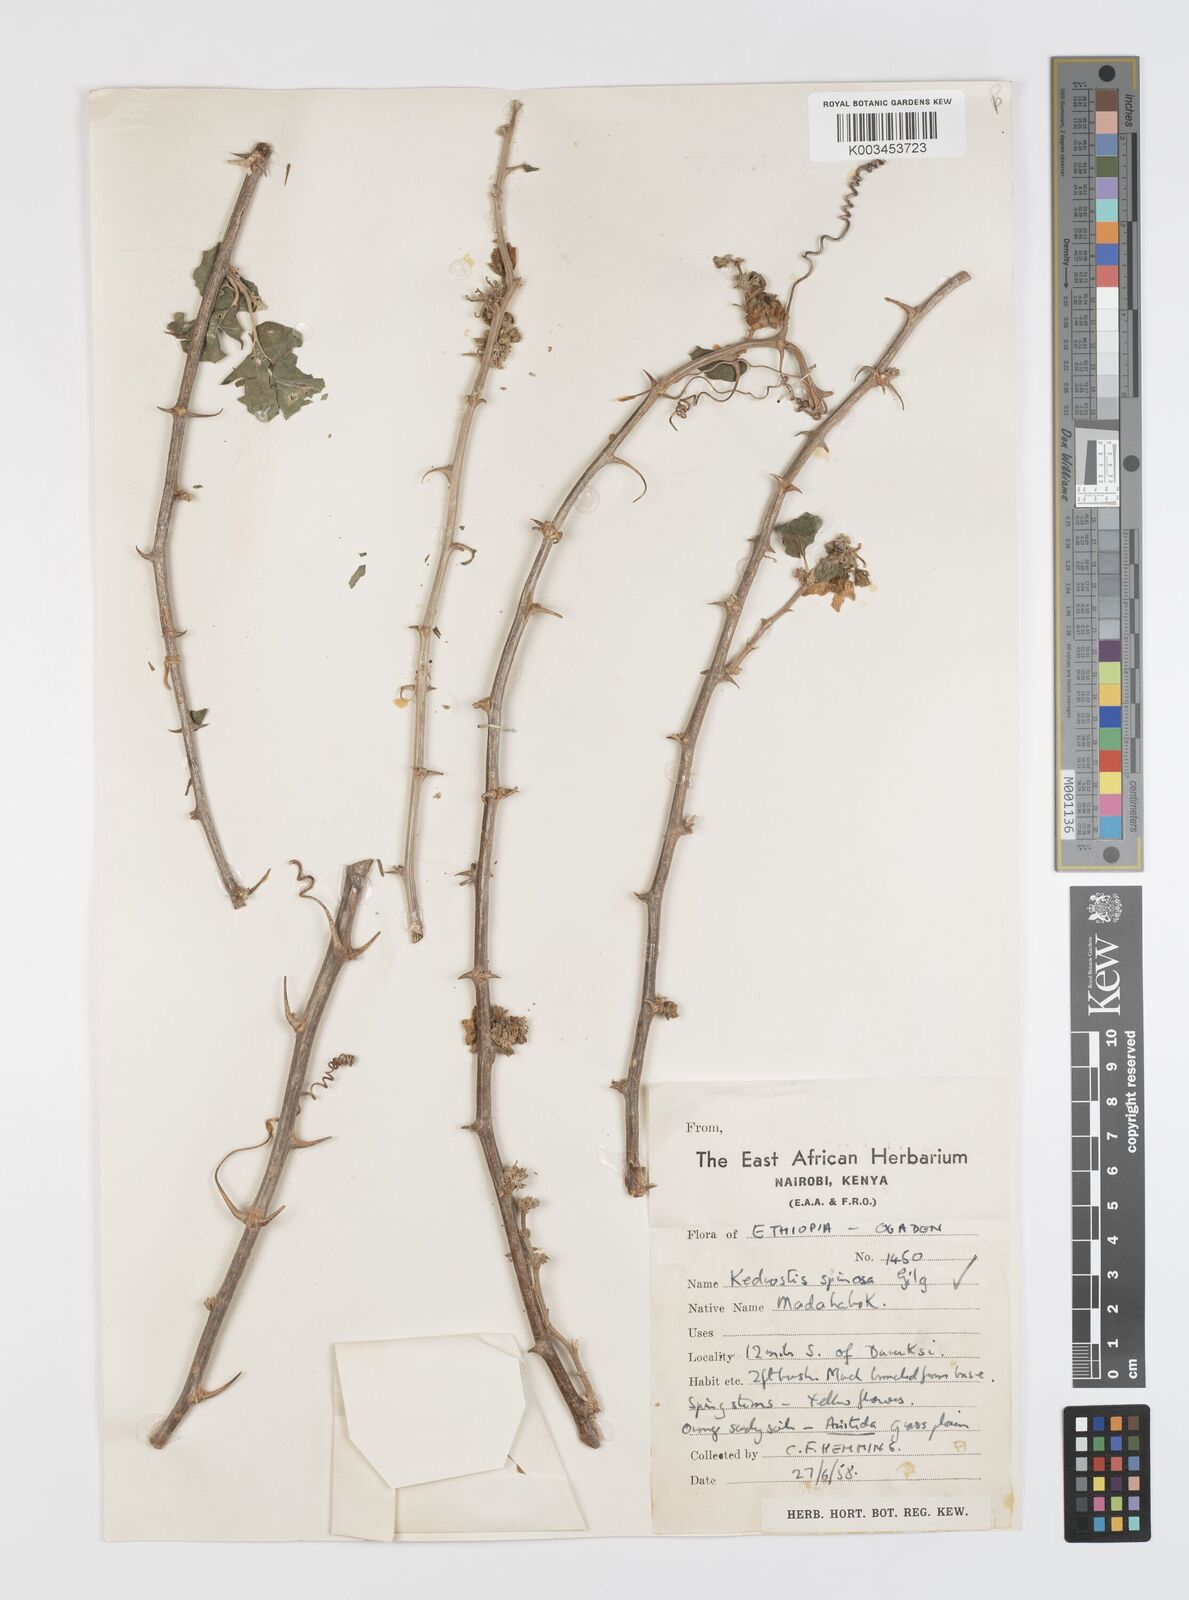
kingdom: Plantae
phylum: Tracheophyta
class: Magnoliopsida
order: Cucurbitales
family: Cucurbitaceae
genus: Momordica
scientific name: Momordica spinosa
